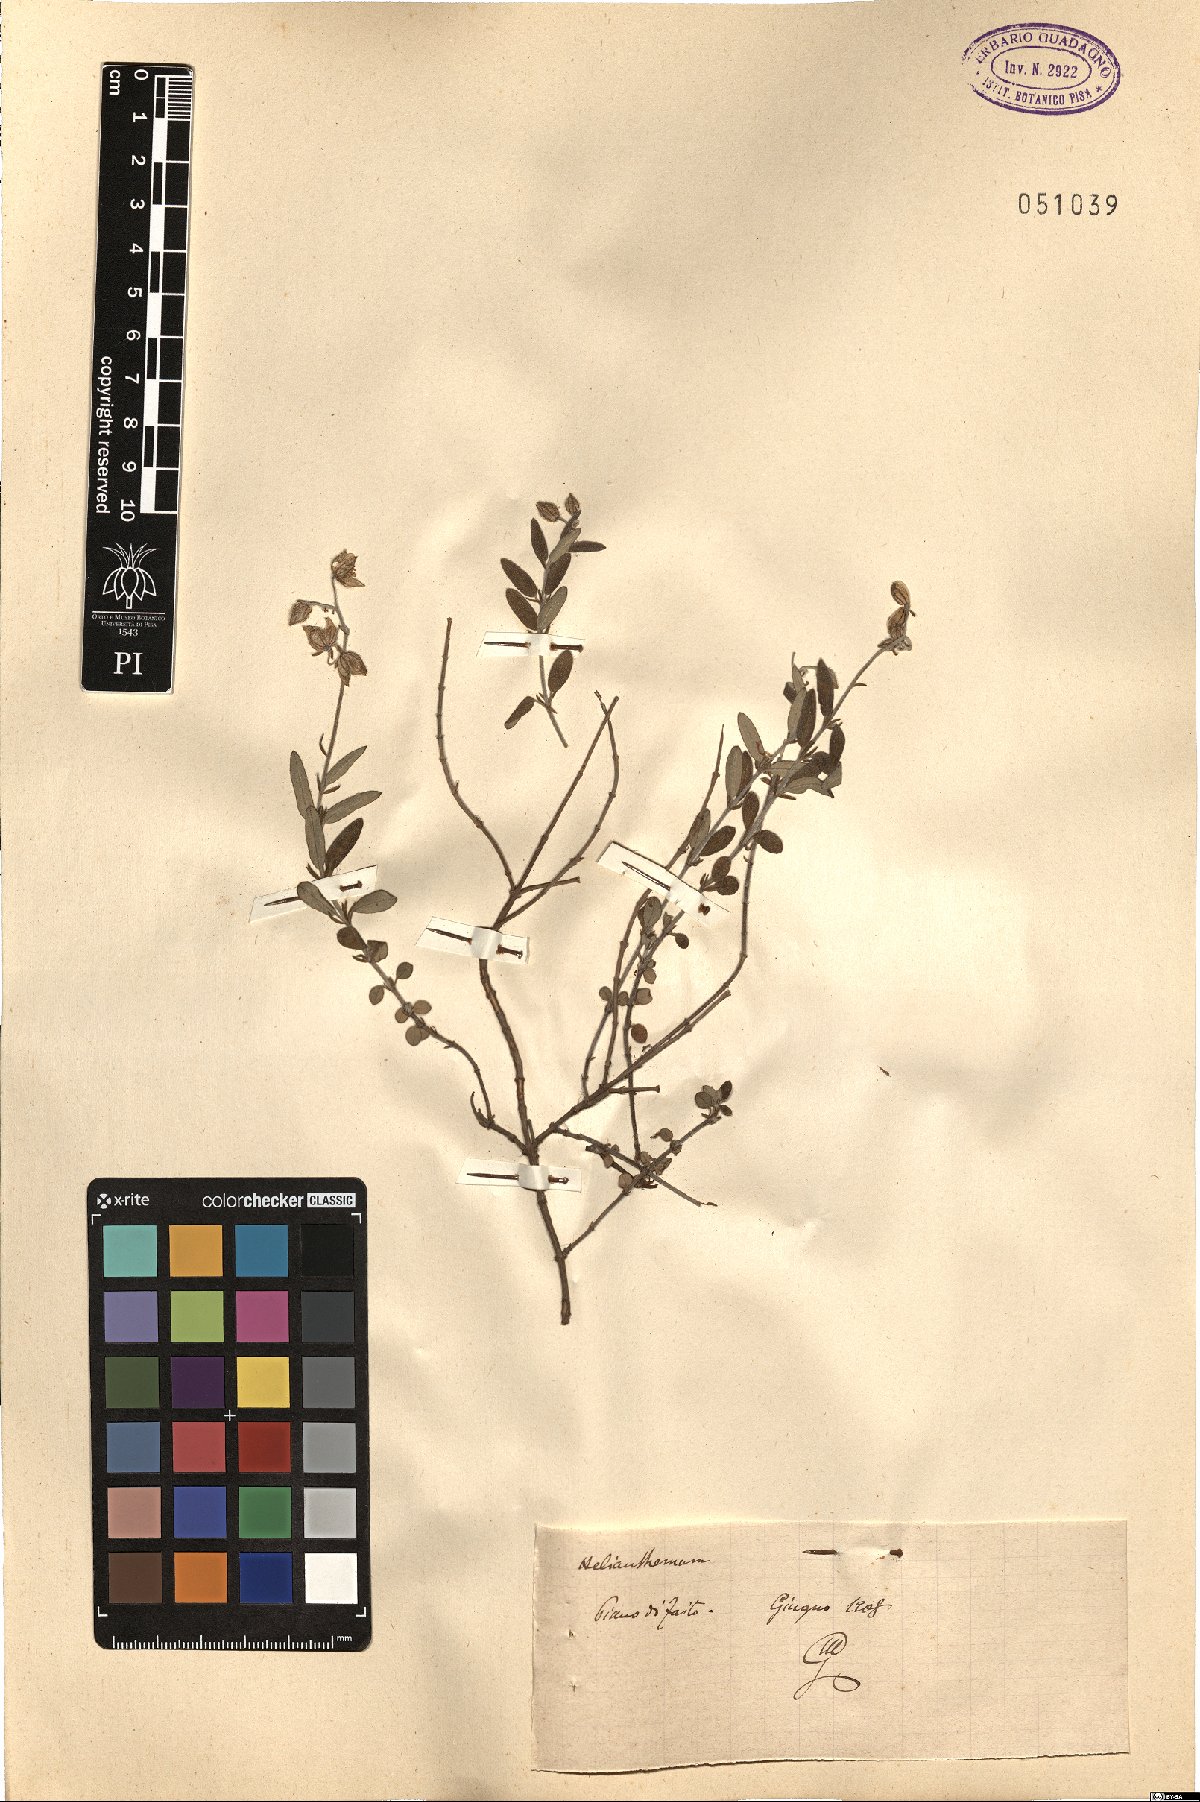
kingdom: Plantae
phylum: Tracheophyta
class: Magnoliopsida
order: Malvales
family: Cistaceae
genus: Helianthemum
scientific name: Helianthemum
